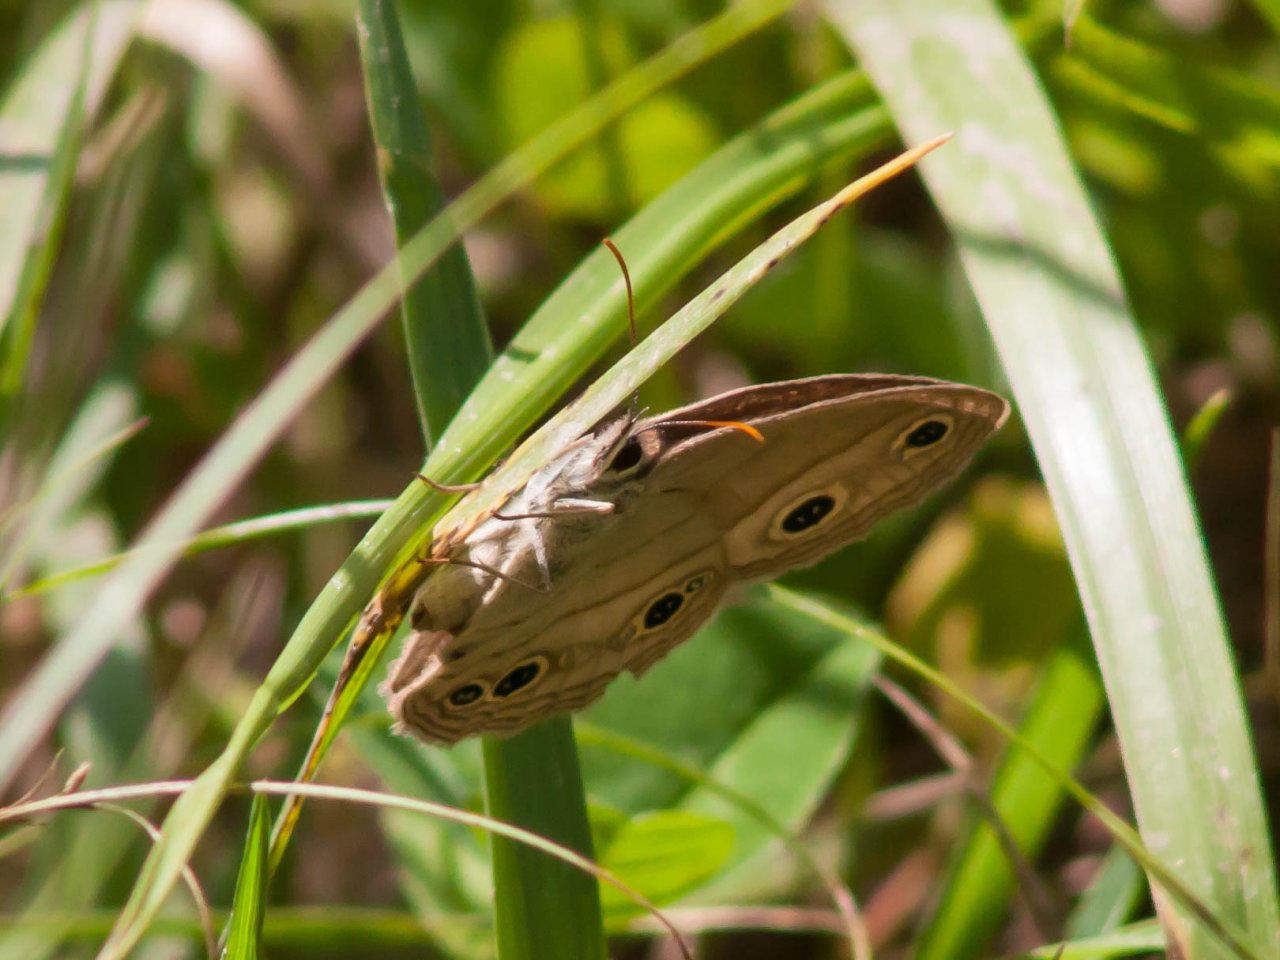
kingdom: Animalia
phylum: Arthropoda
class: Insecta
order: Lepidoptera
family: Nymphalidae
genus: Euptychia
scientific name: Euptychia cymela
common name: Little Wood Satyr
